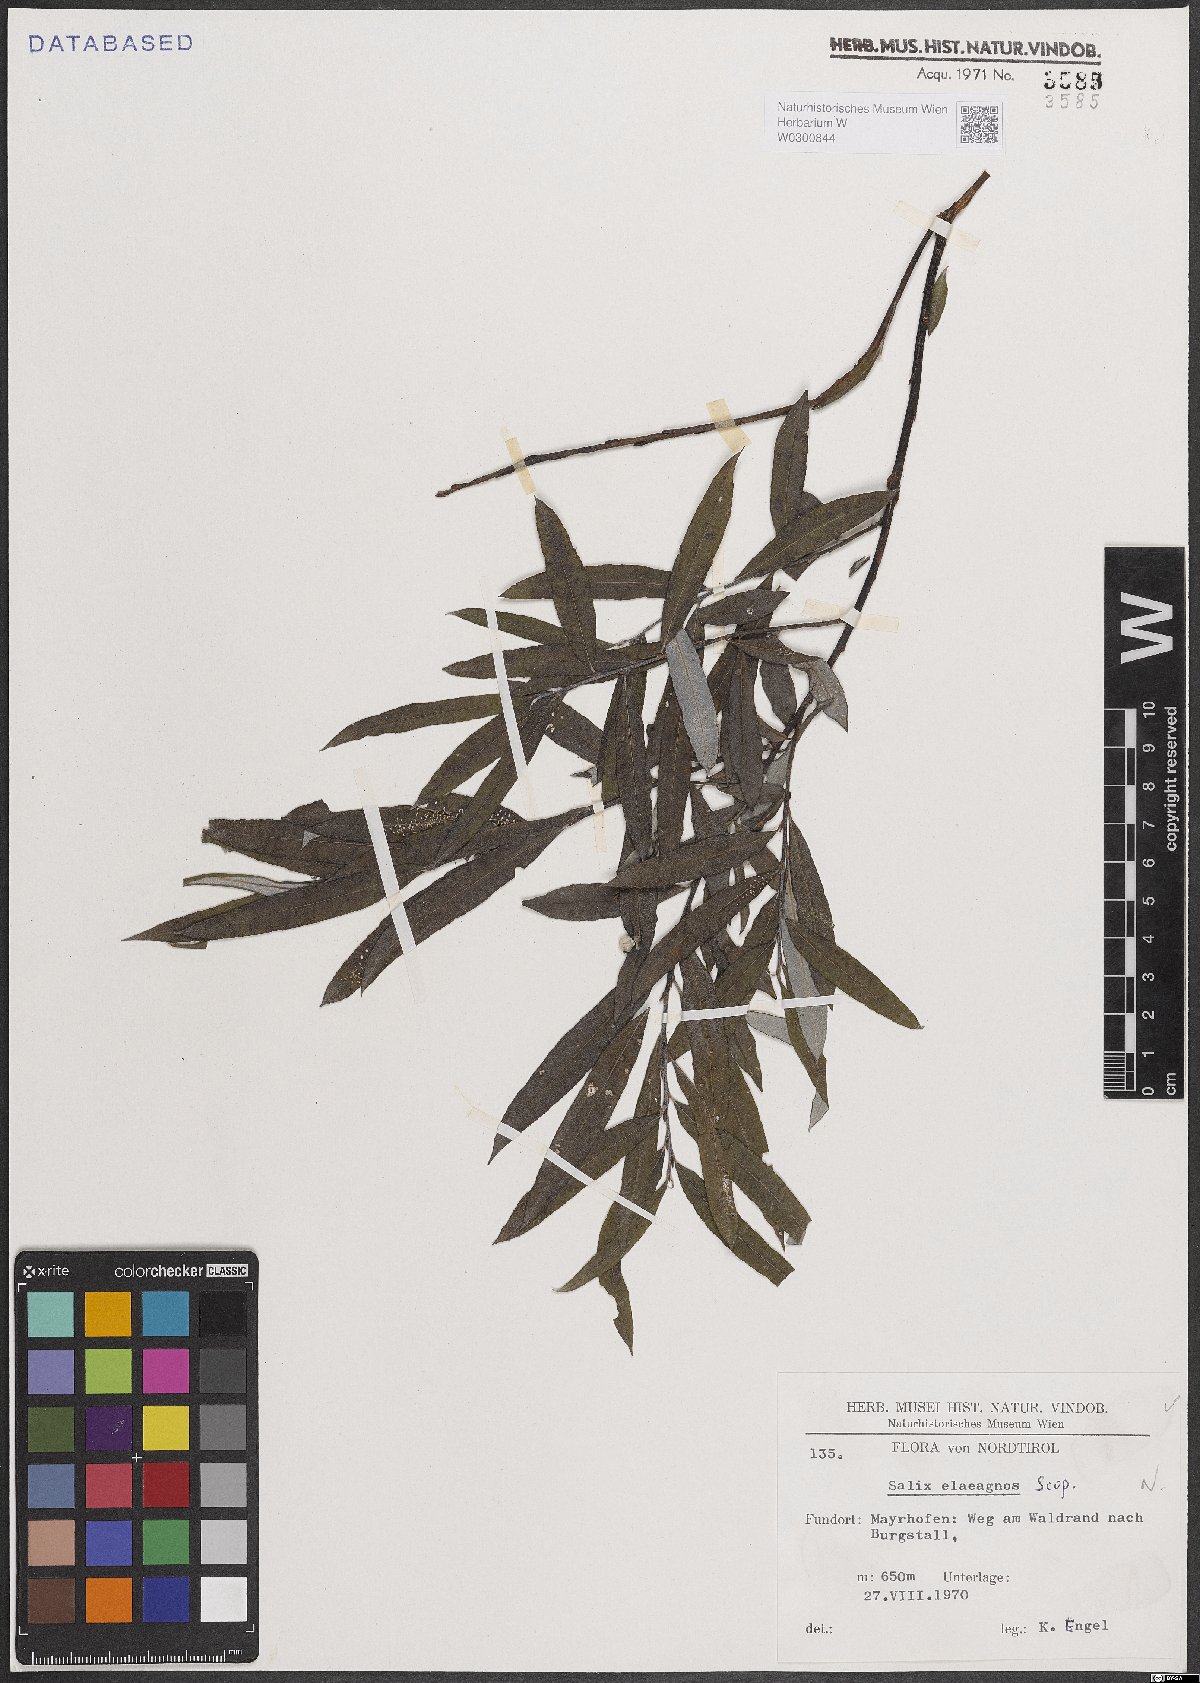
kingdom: Plantae
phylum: Tracheophyta
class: Magnoliopsida
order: Malpighiales
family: Salicaceae
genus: Salix
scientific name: Salix eleagnos
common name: Elaeagnus willow
